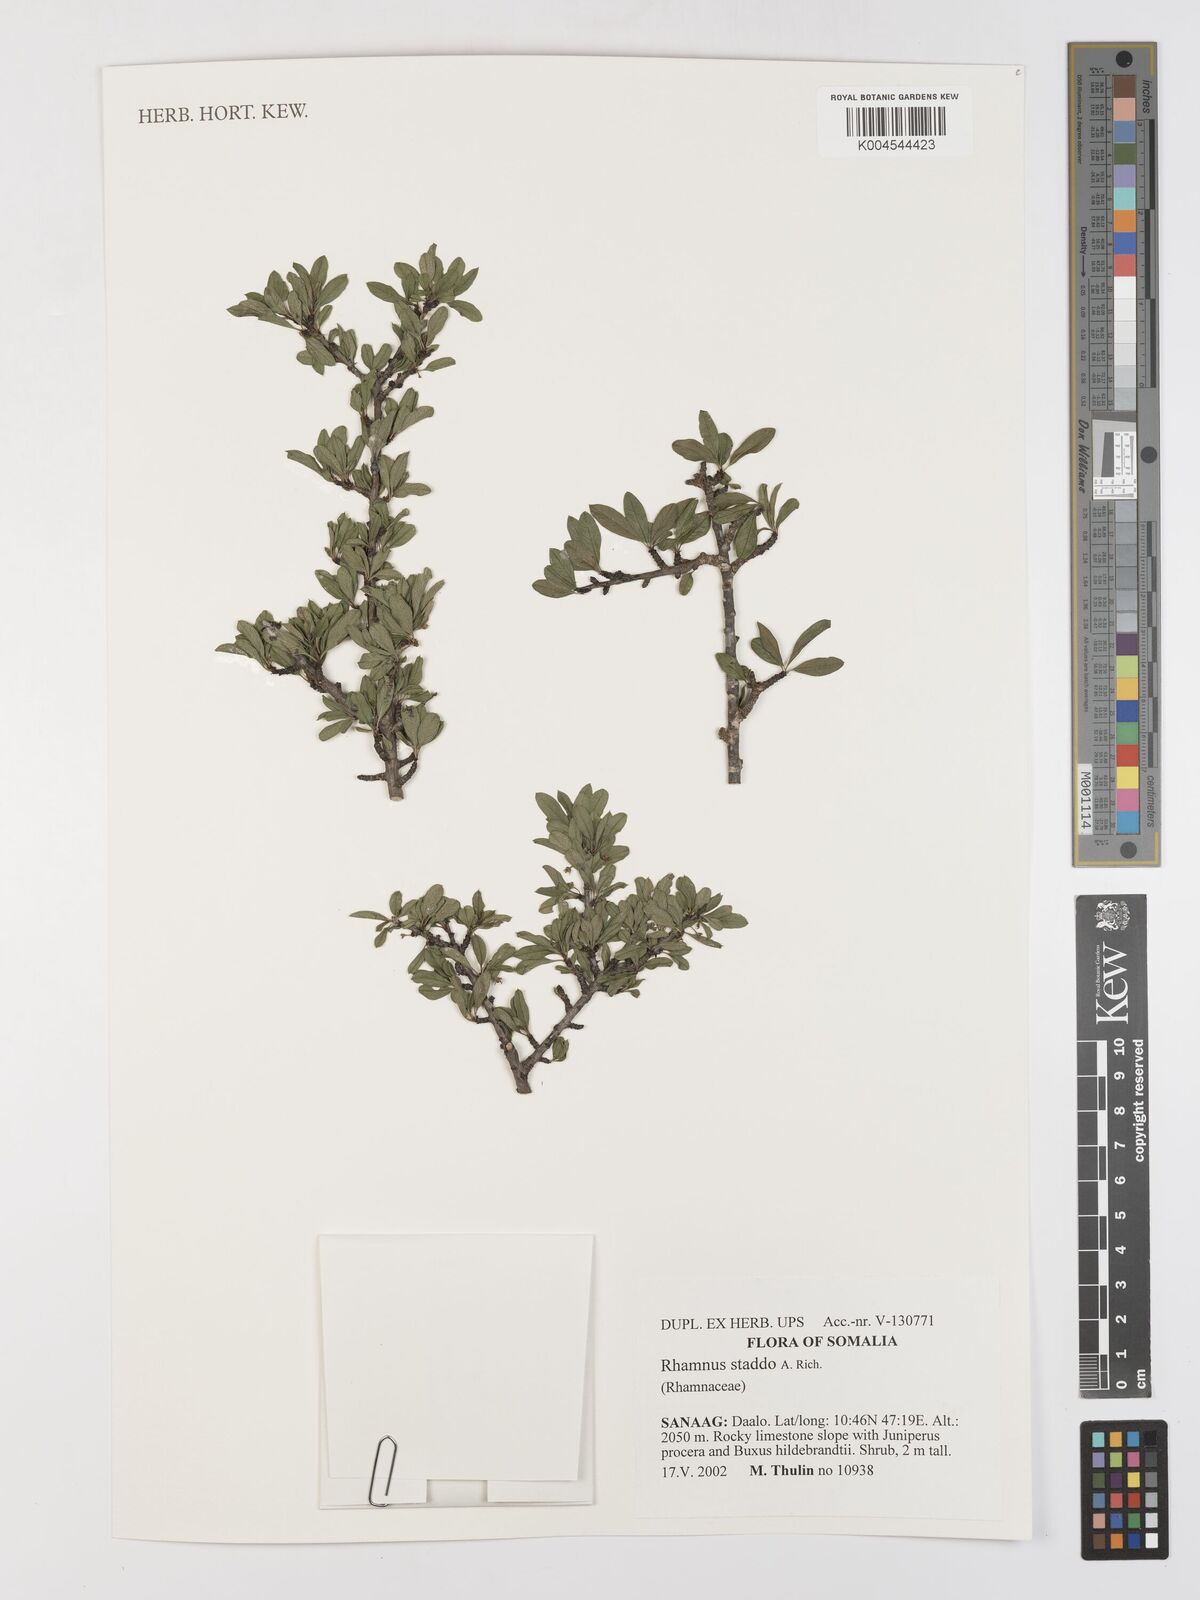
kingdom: Plantae
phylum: Tracheophyta
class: Magnoliopsida
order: Rosales
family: Rhamnaceae
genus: Rhamnus
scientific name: Rhamnus staddo
